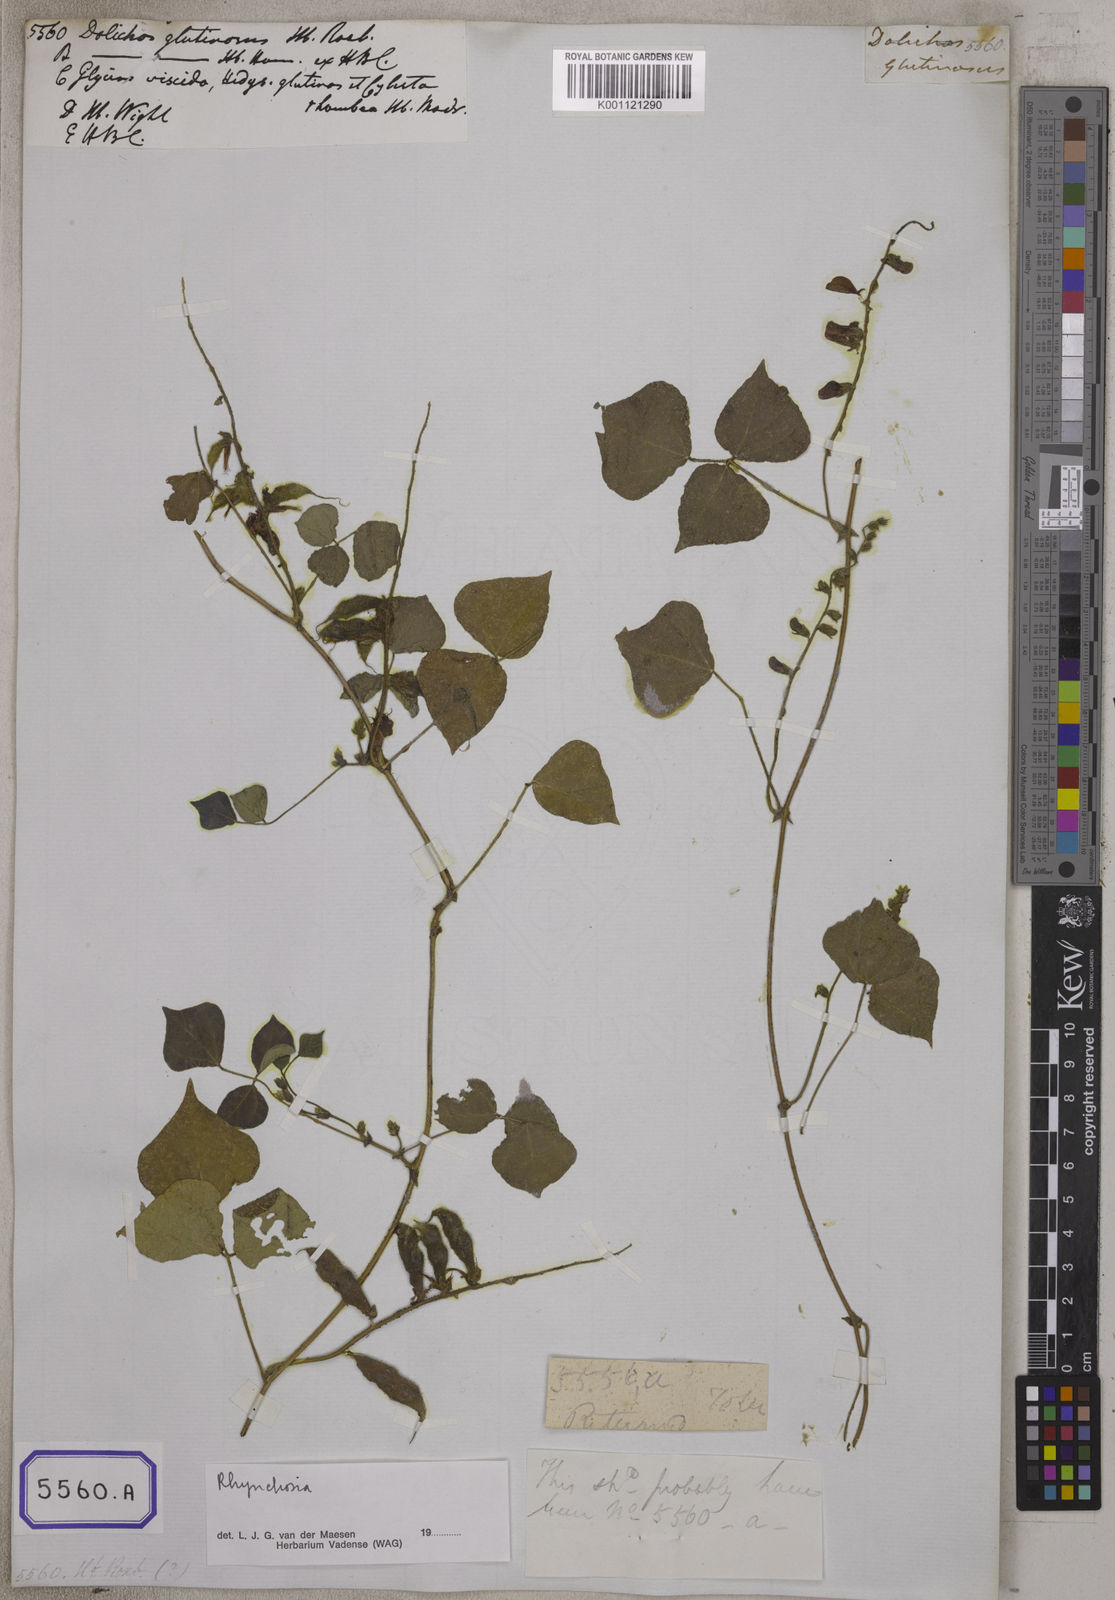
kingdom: Plantae
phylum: Tracheophyta
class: Magnoliopsida
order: Fabales
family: Fabaceae
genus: Rhynchosia
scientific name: Rhynchosia viscosa
